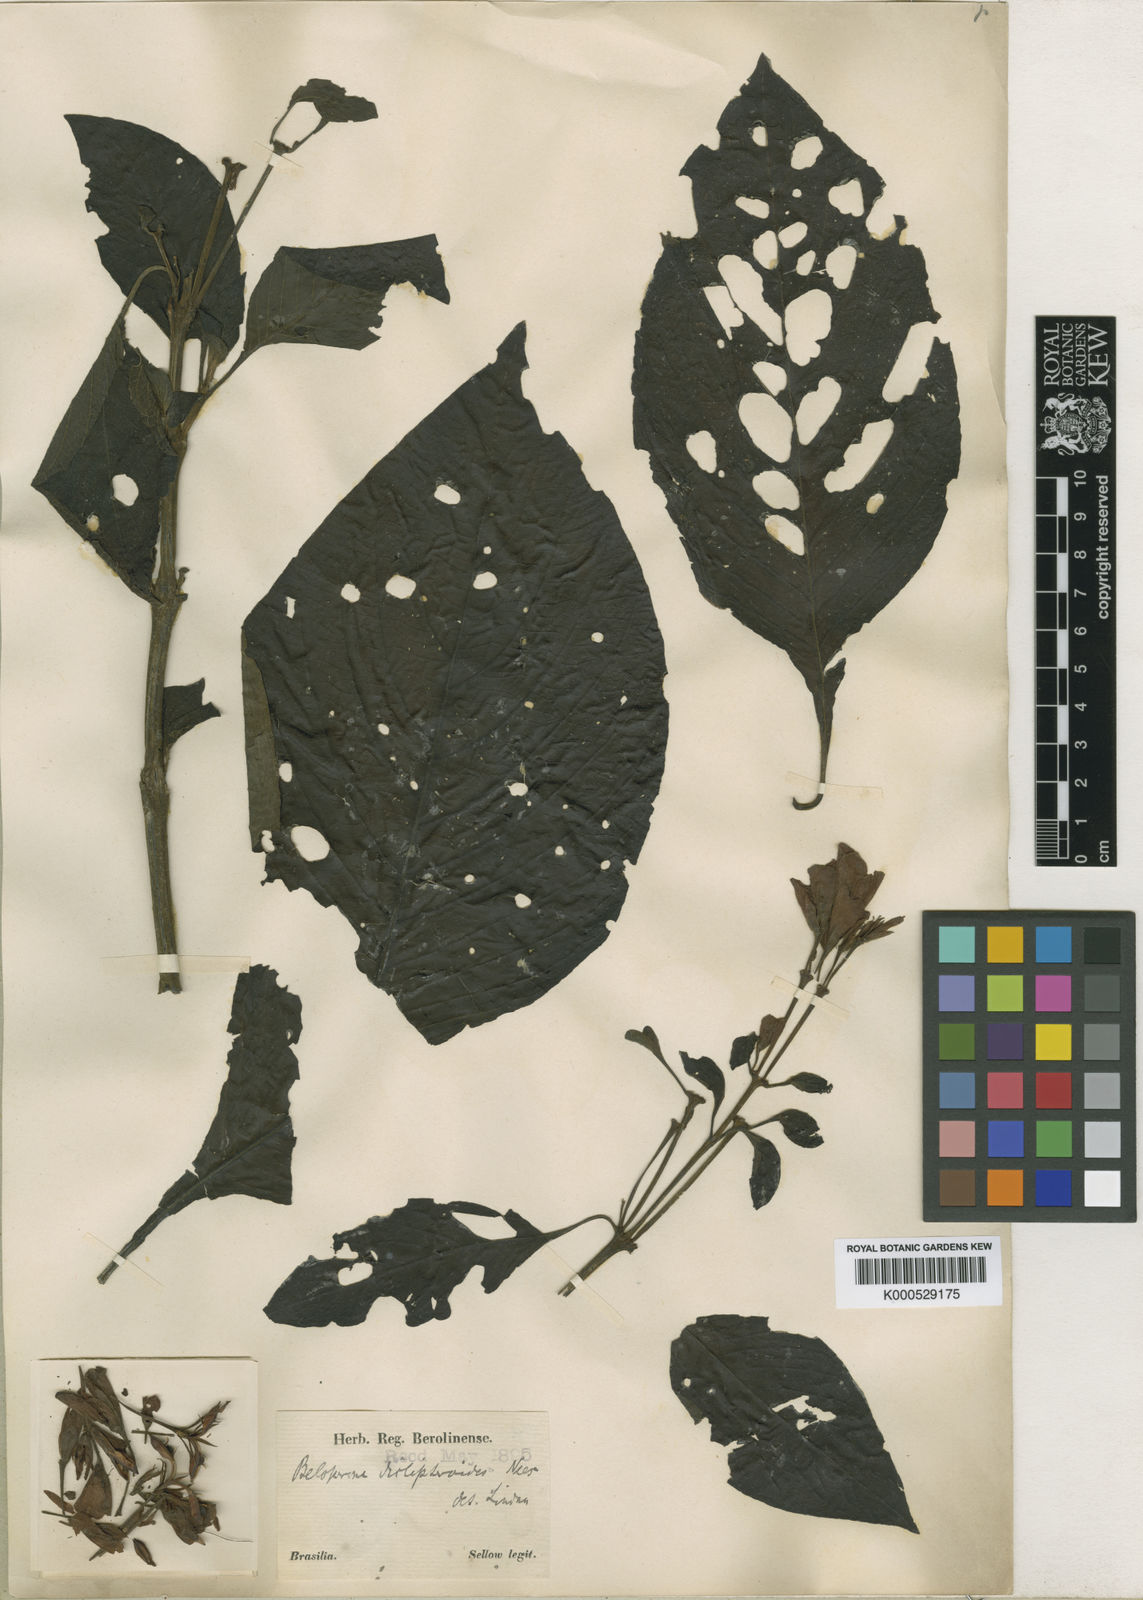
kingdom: Plantae
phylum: Tracheophyta
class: Magnoliopsida
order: Lamiales
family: Acanthaceae
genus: Justicia
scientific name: Justicia sellowiana
